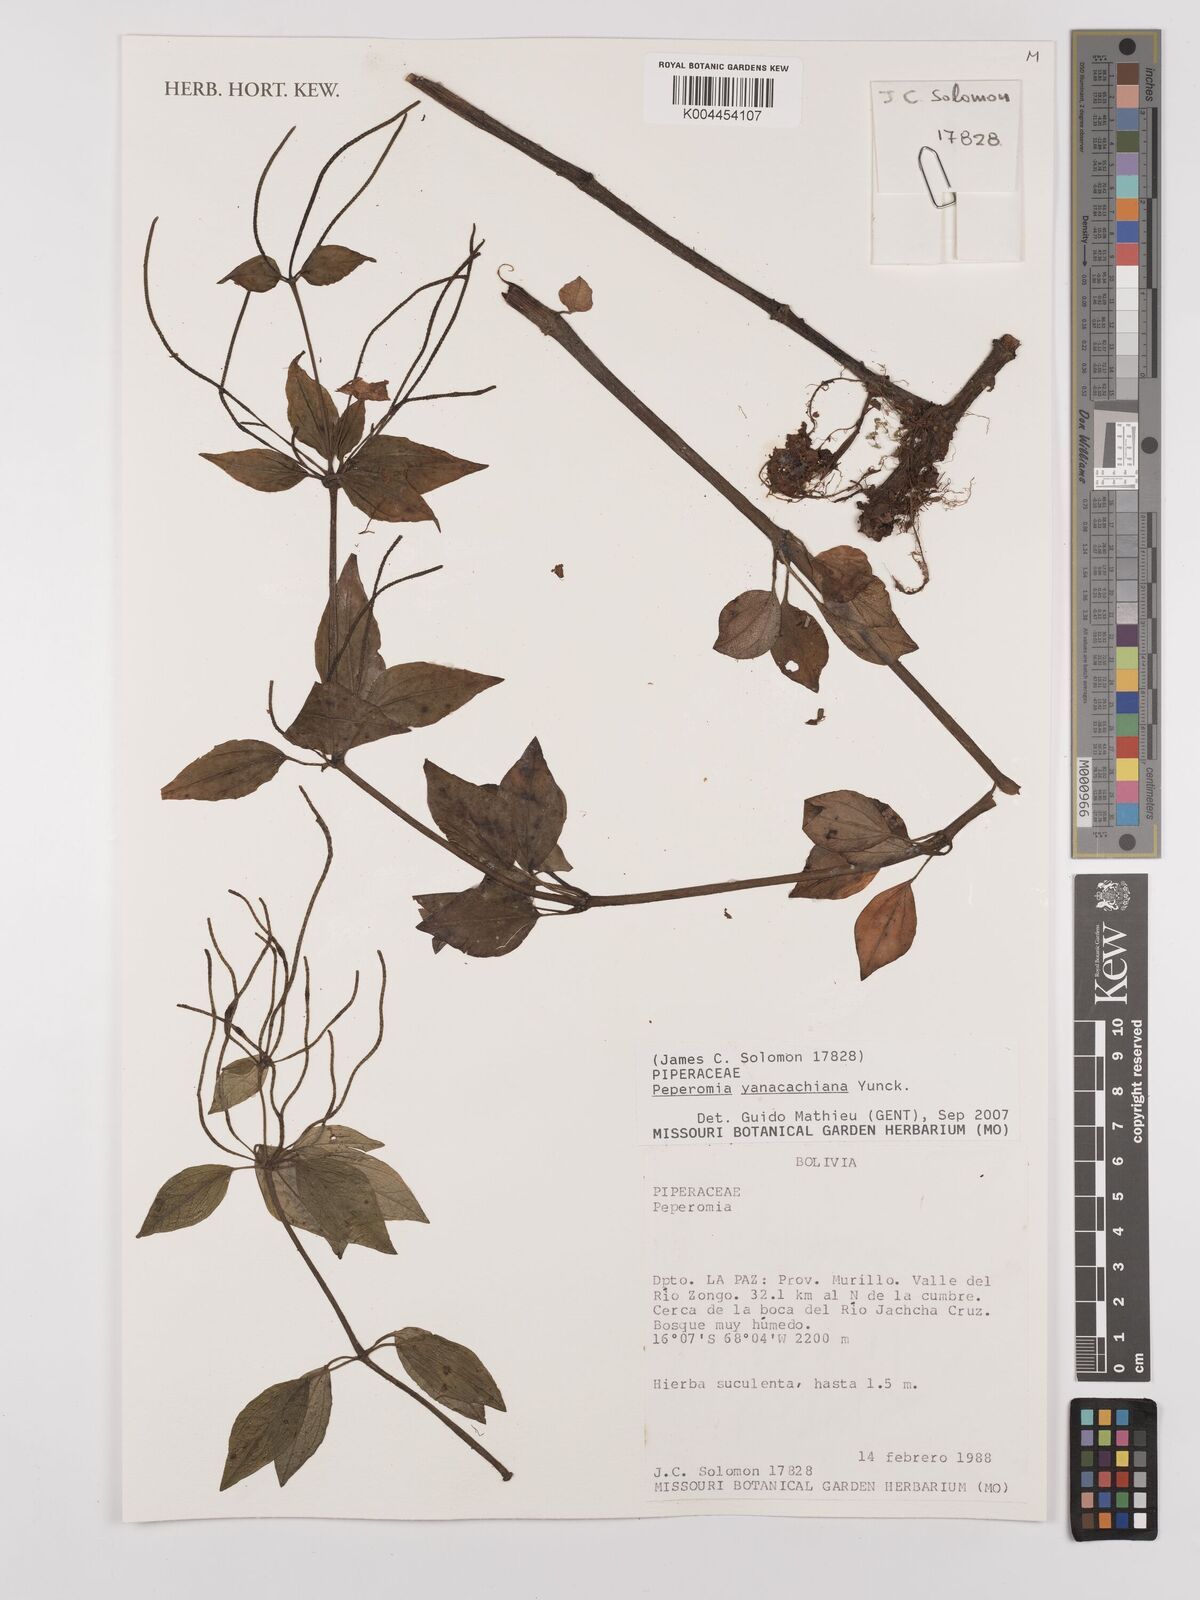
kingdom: Plantae
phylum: Tracheophyta
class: Magnoliopsida
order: Piperales
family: Piperaceae
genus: Peperomia
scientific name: Peperomia yanacachiana
